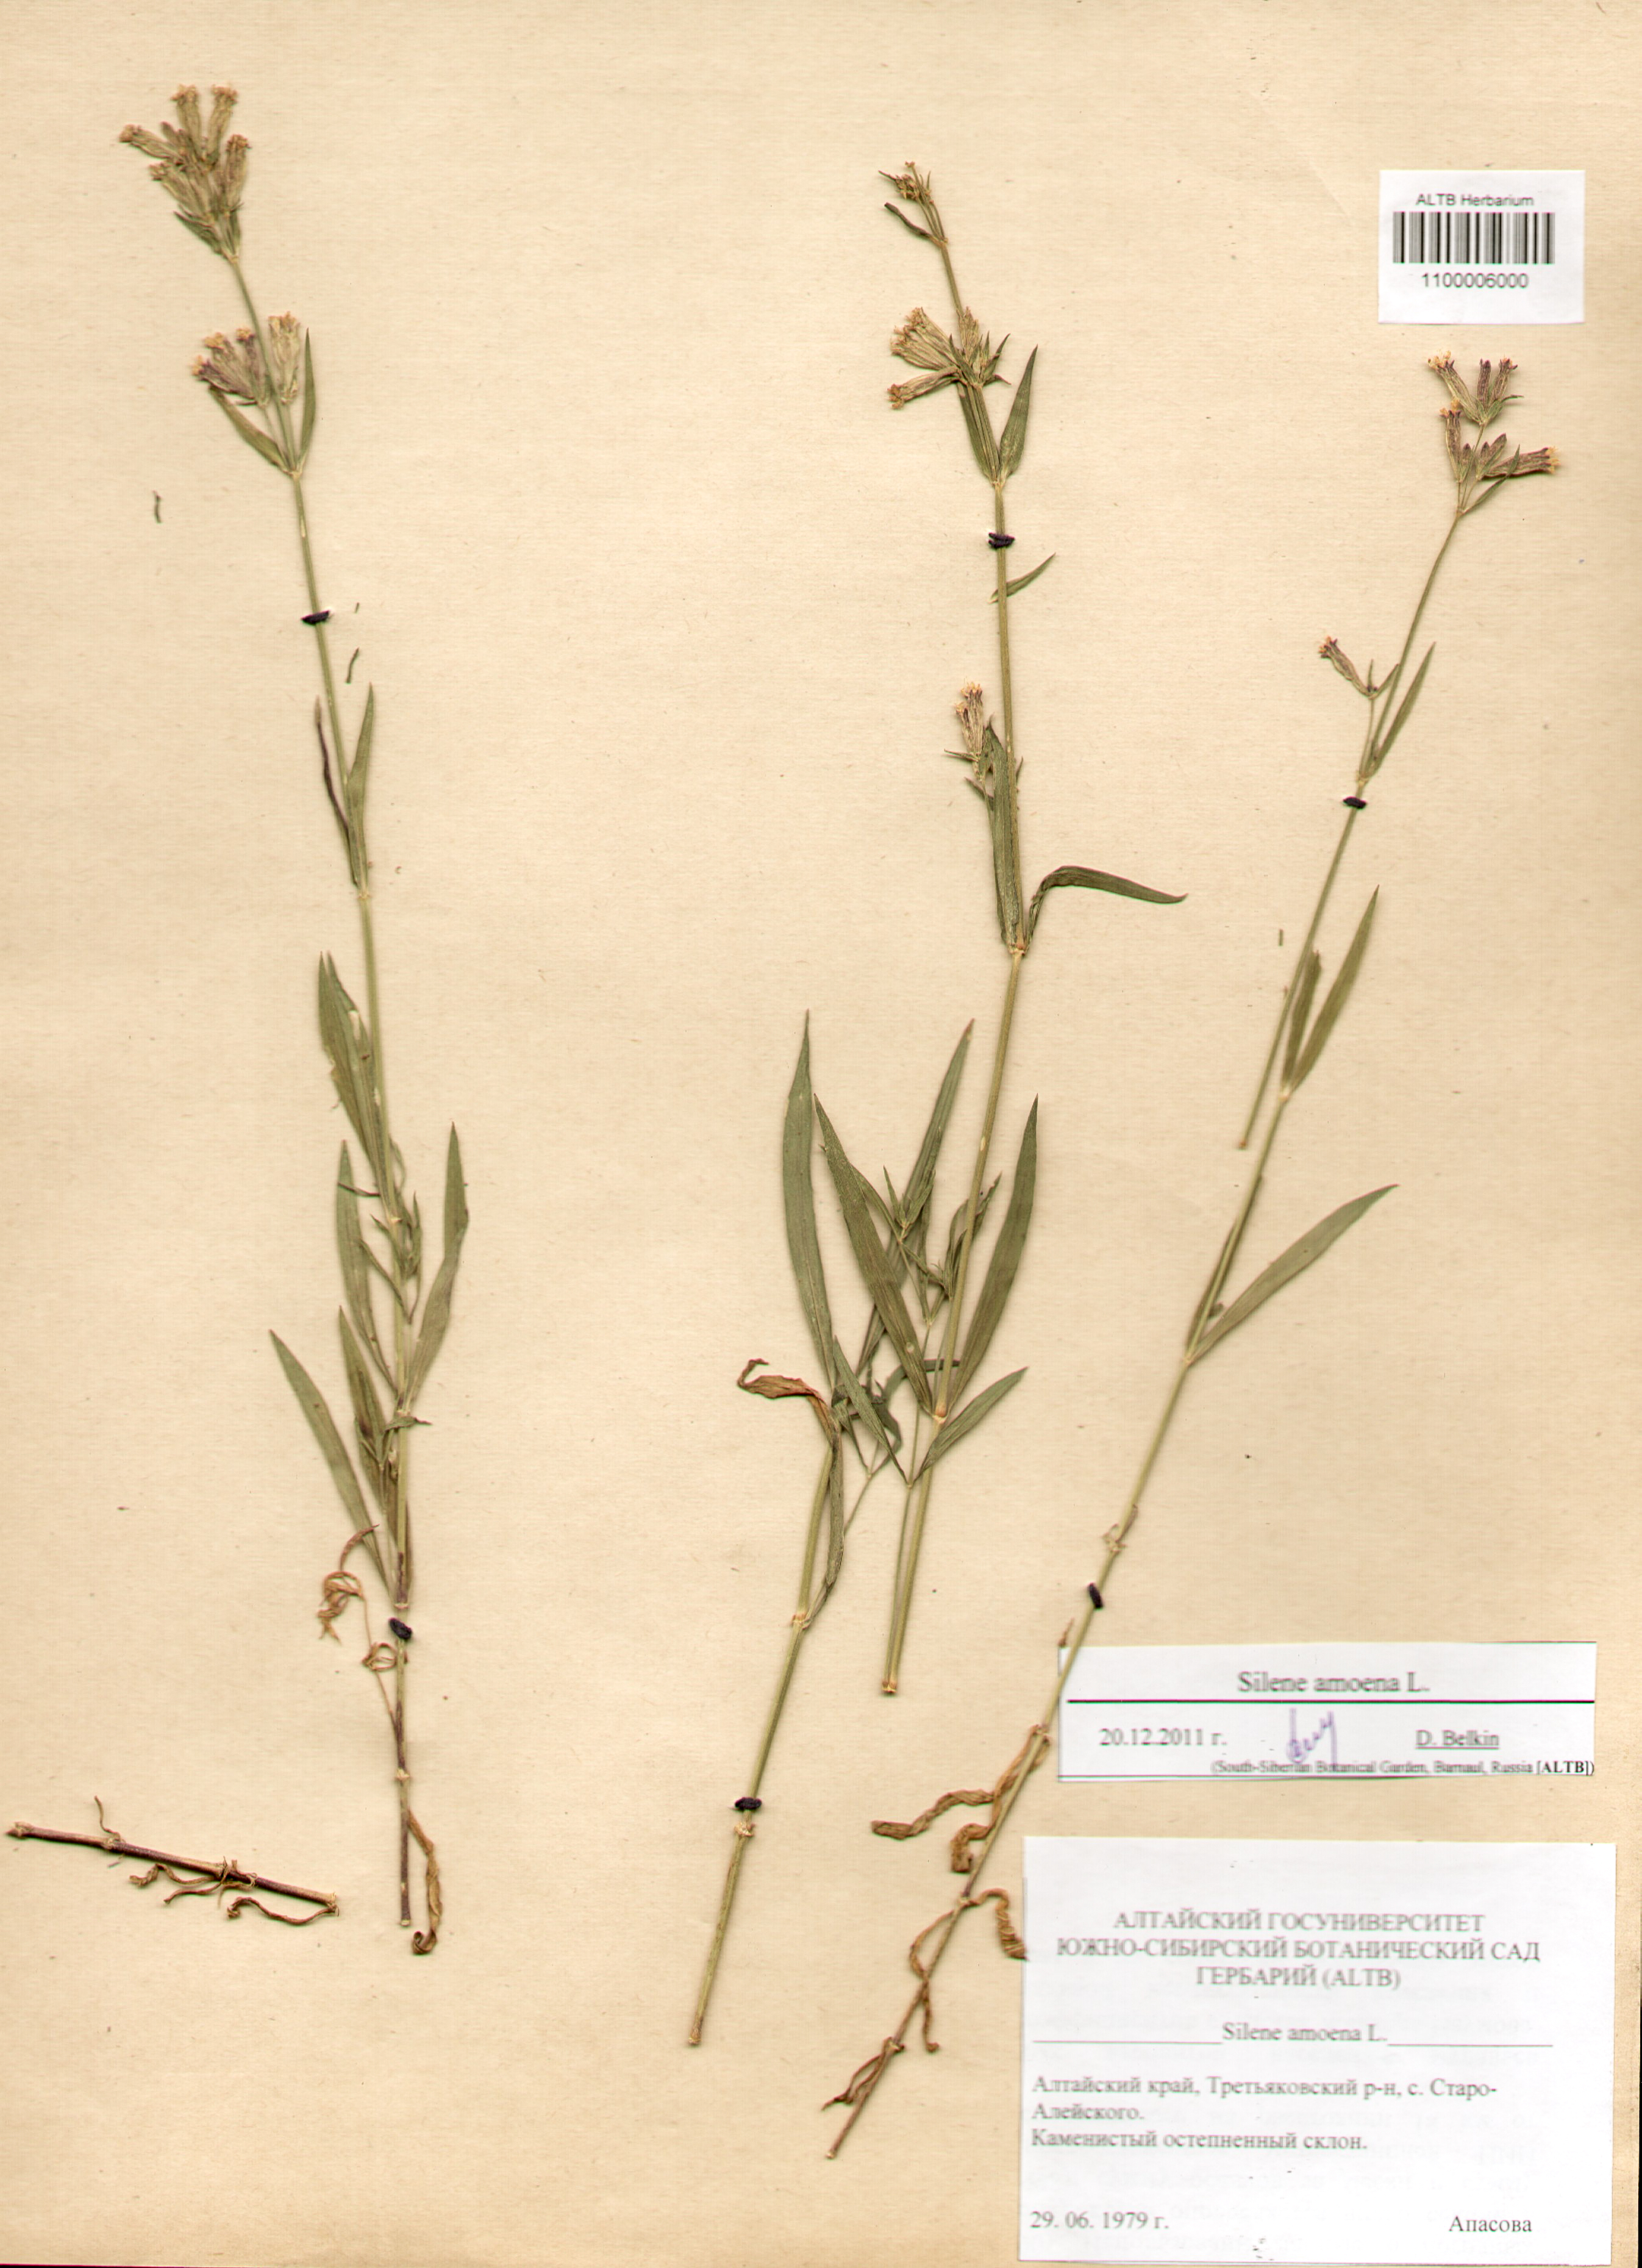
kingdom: Plantae
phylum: Tracheophyta
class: Magnoliopsida
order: Caryophyllales
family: Caryophyllaceae
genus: Silene
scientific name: Silene amoena
